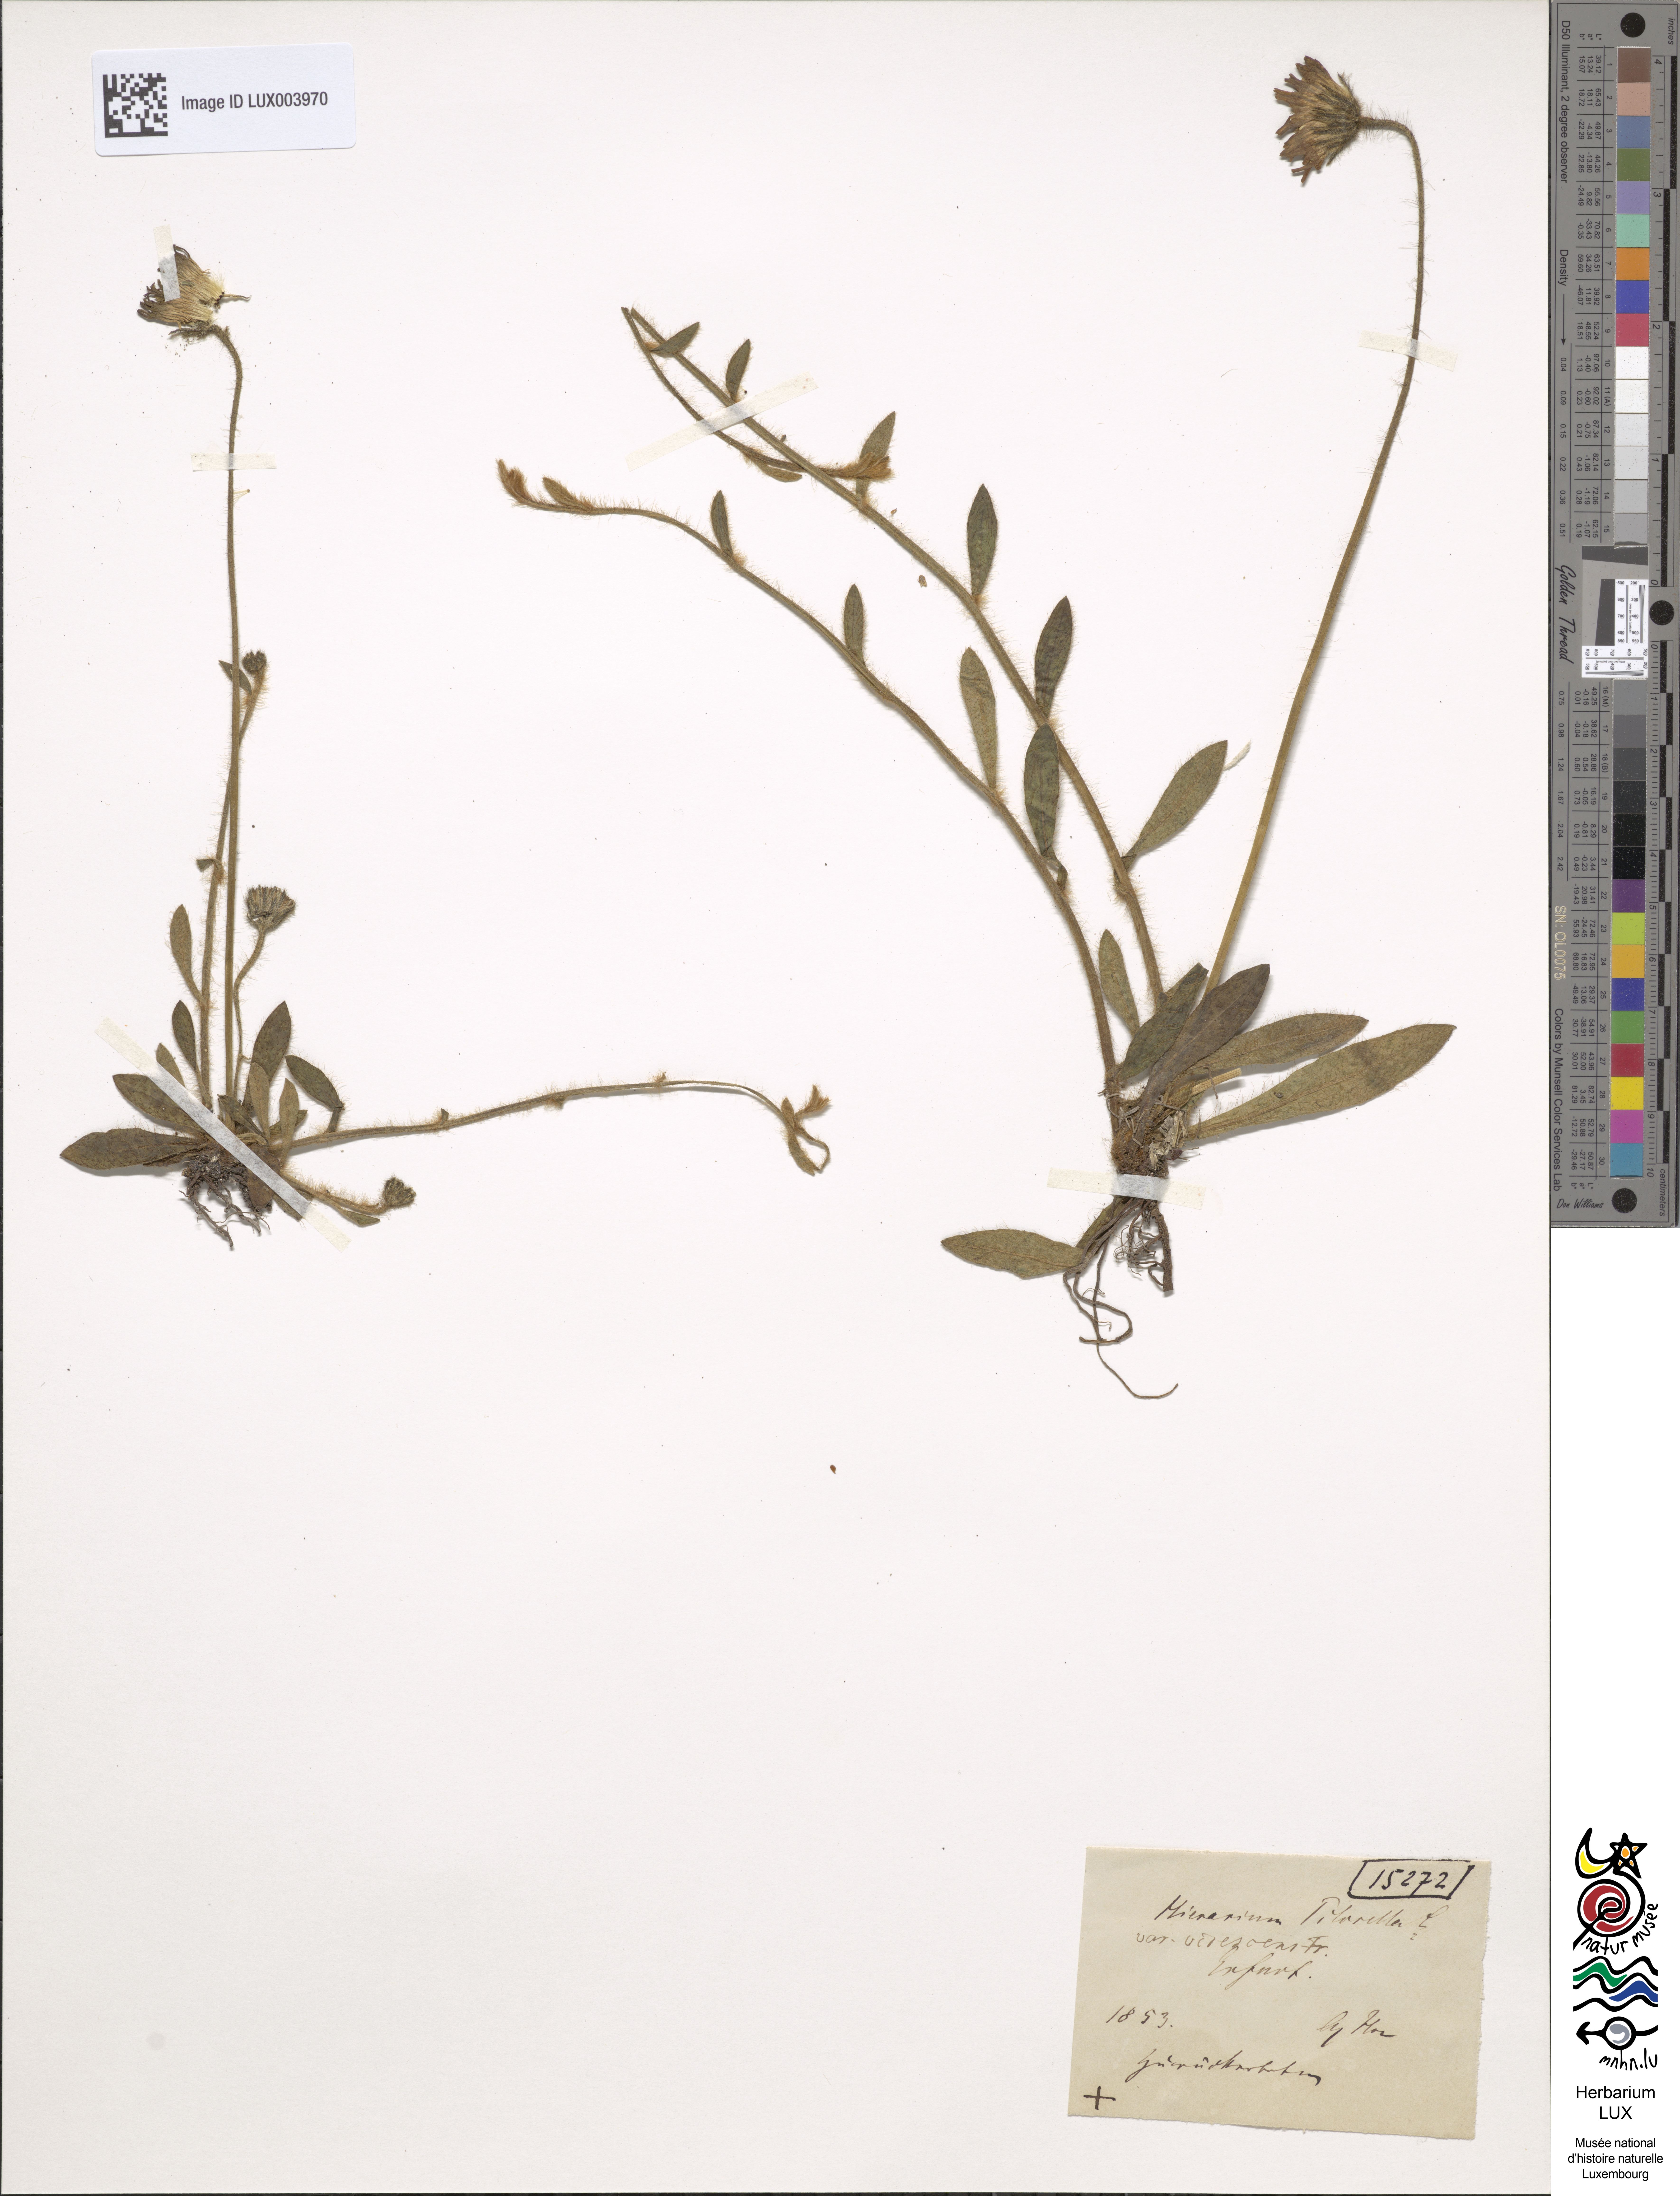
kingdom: Plantae
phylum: Tracheophyta
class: Magnoliopsida
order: Asterales
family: Asteraceae
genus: Pilosella
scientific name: Pilosella officinarum
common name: Mouse-ear hawkweed
